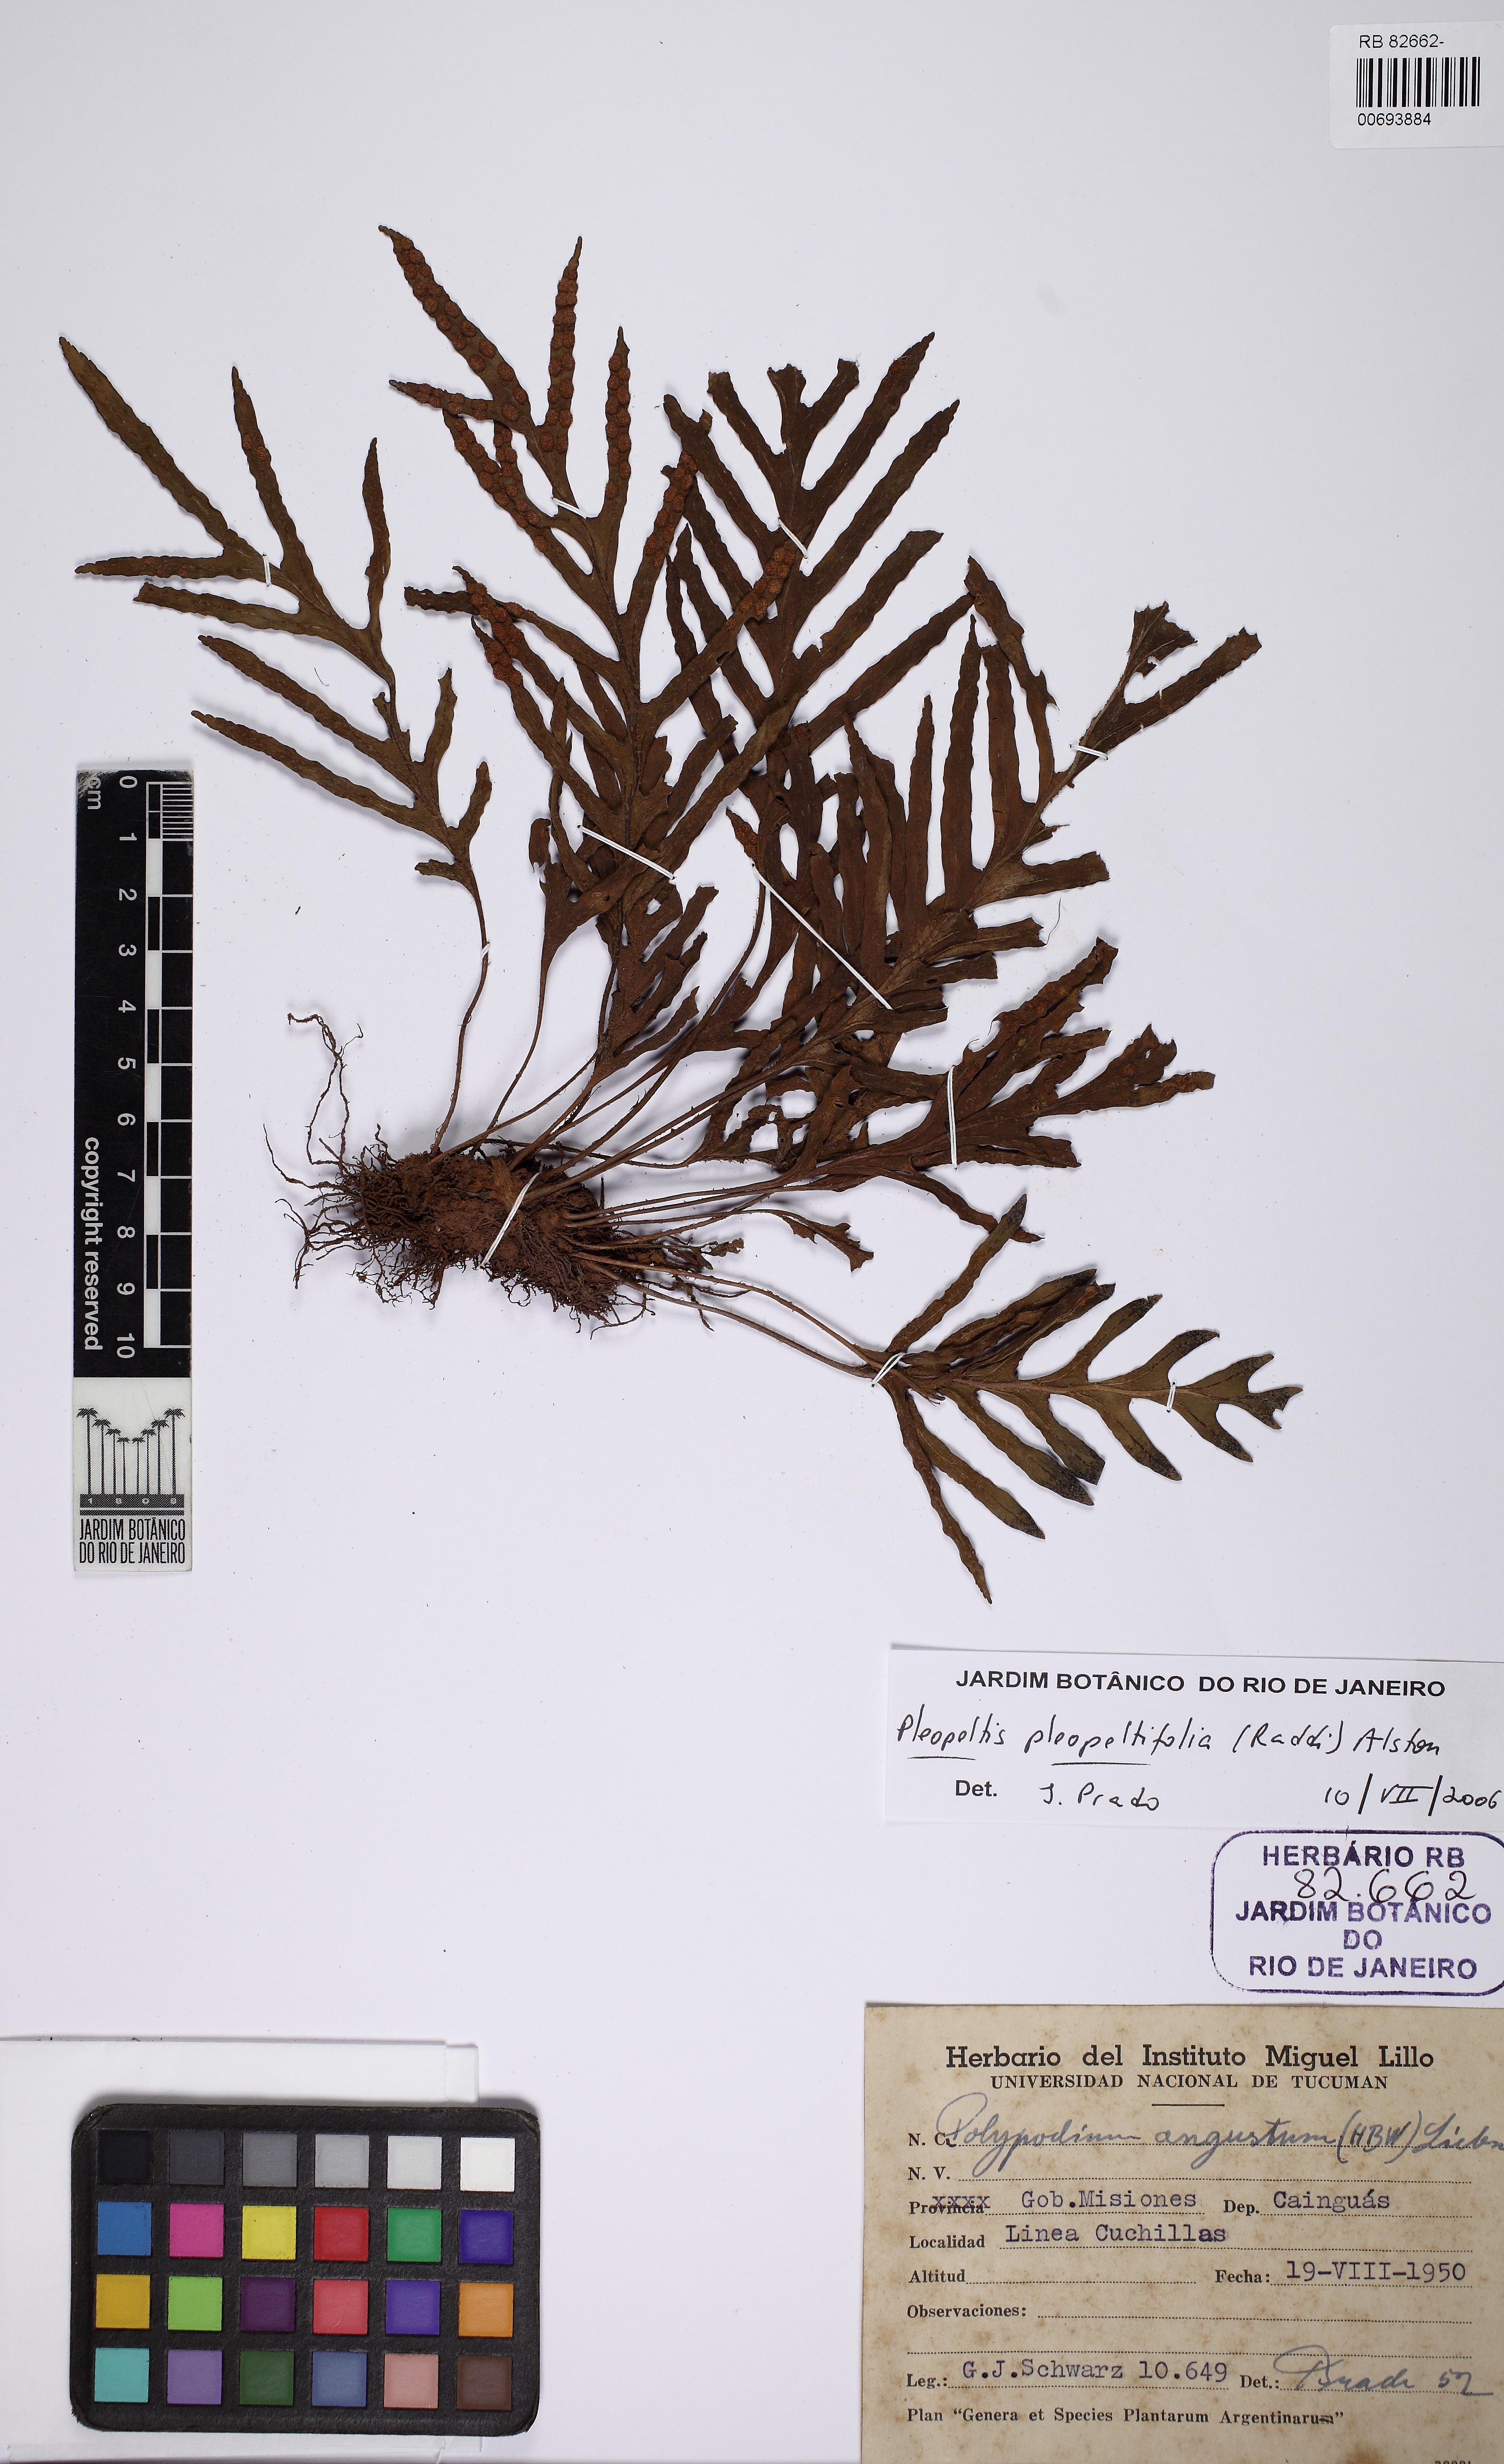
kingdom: Plantae
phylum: Tracheophyta
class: Polypodiopsida
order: Polypodiales
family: Polypodiaceae
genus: Pleopeltis
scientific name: Pleopeltis pleopeltifolia
